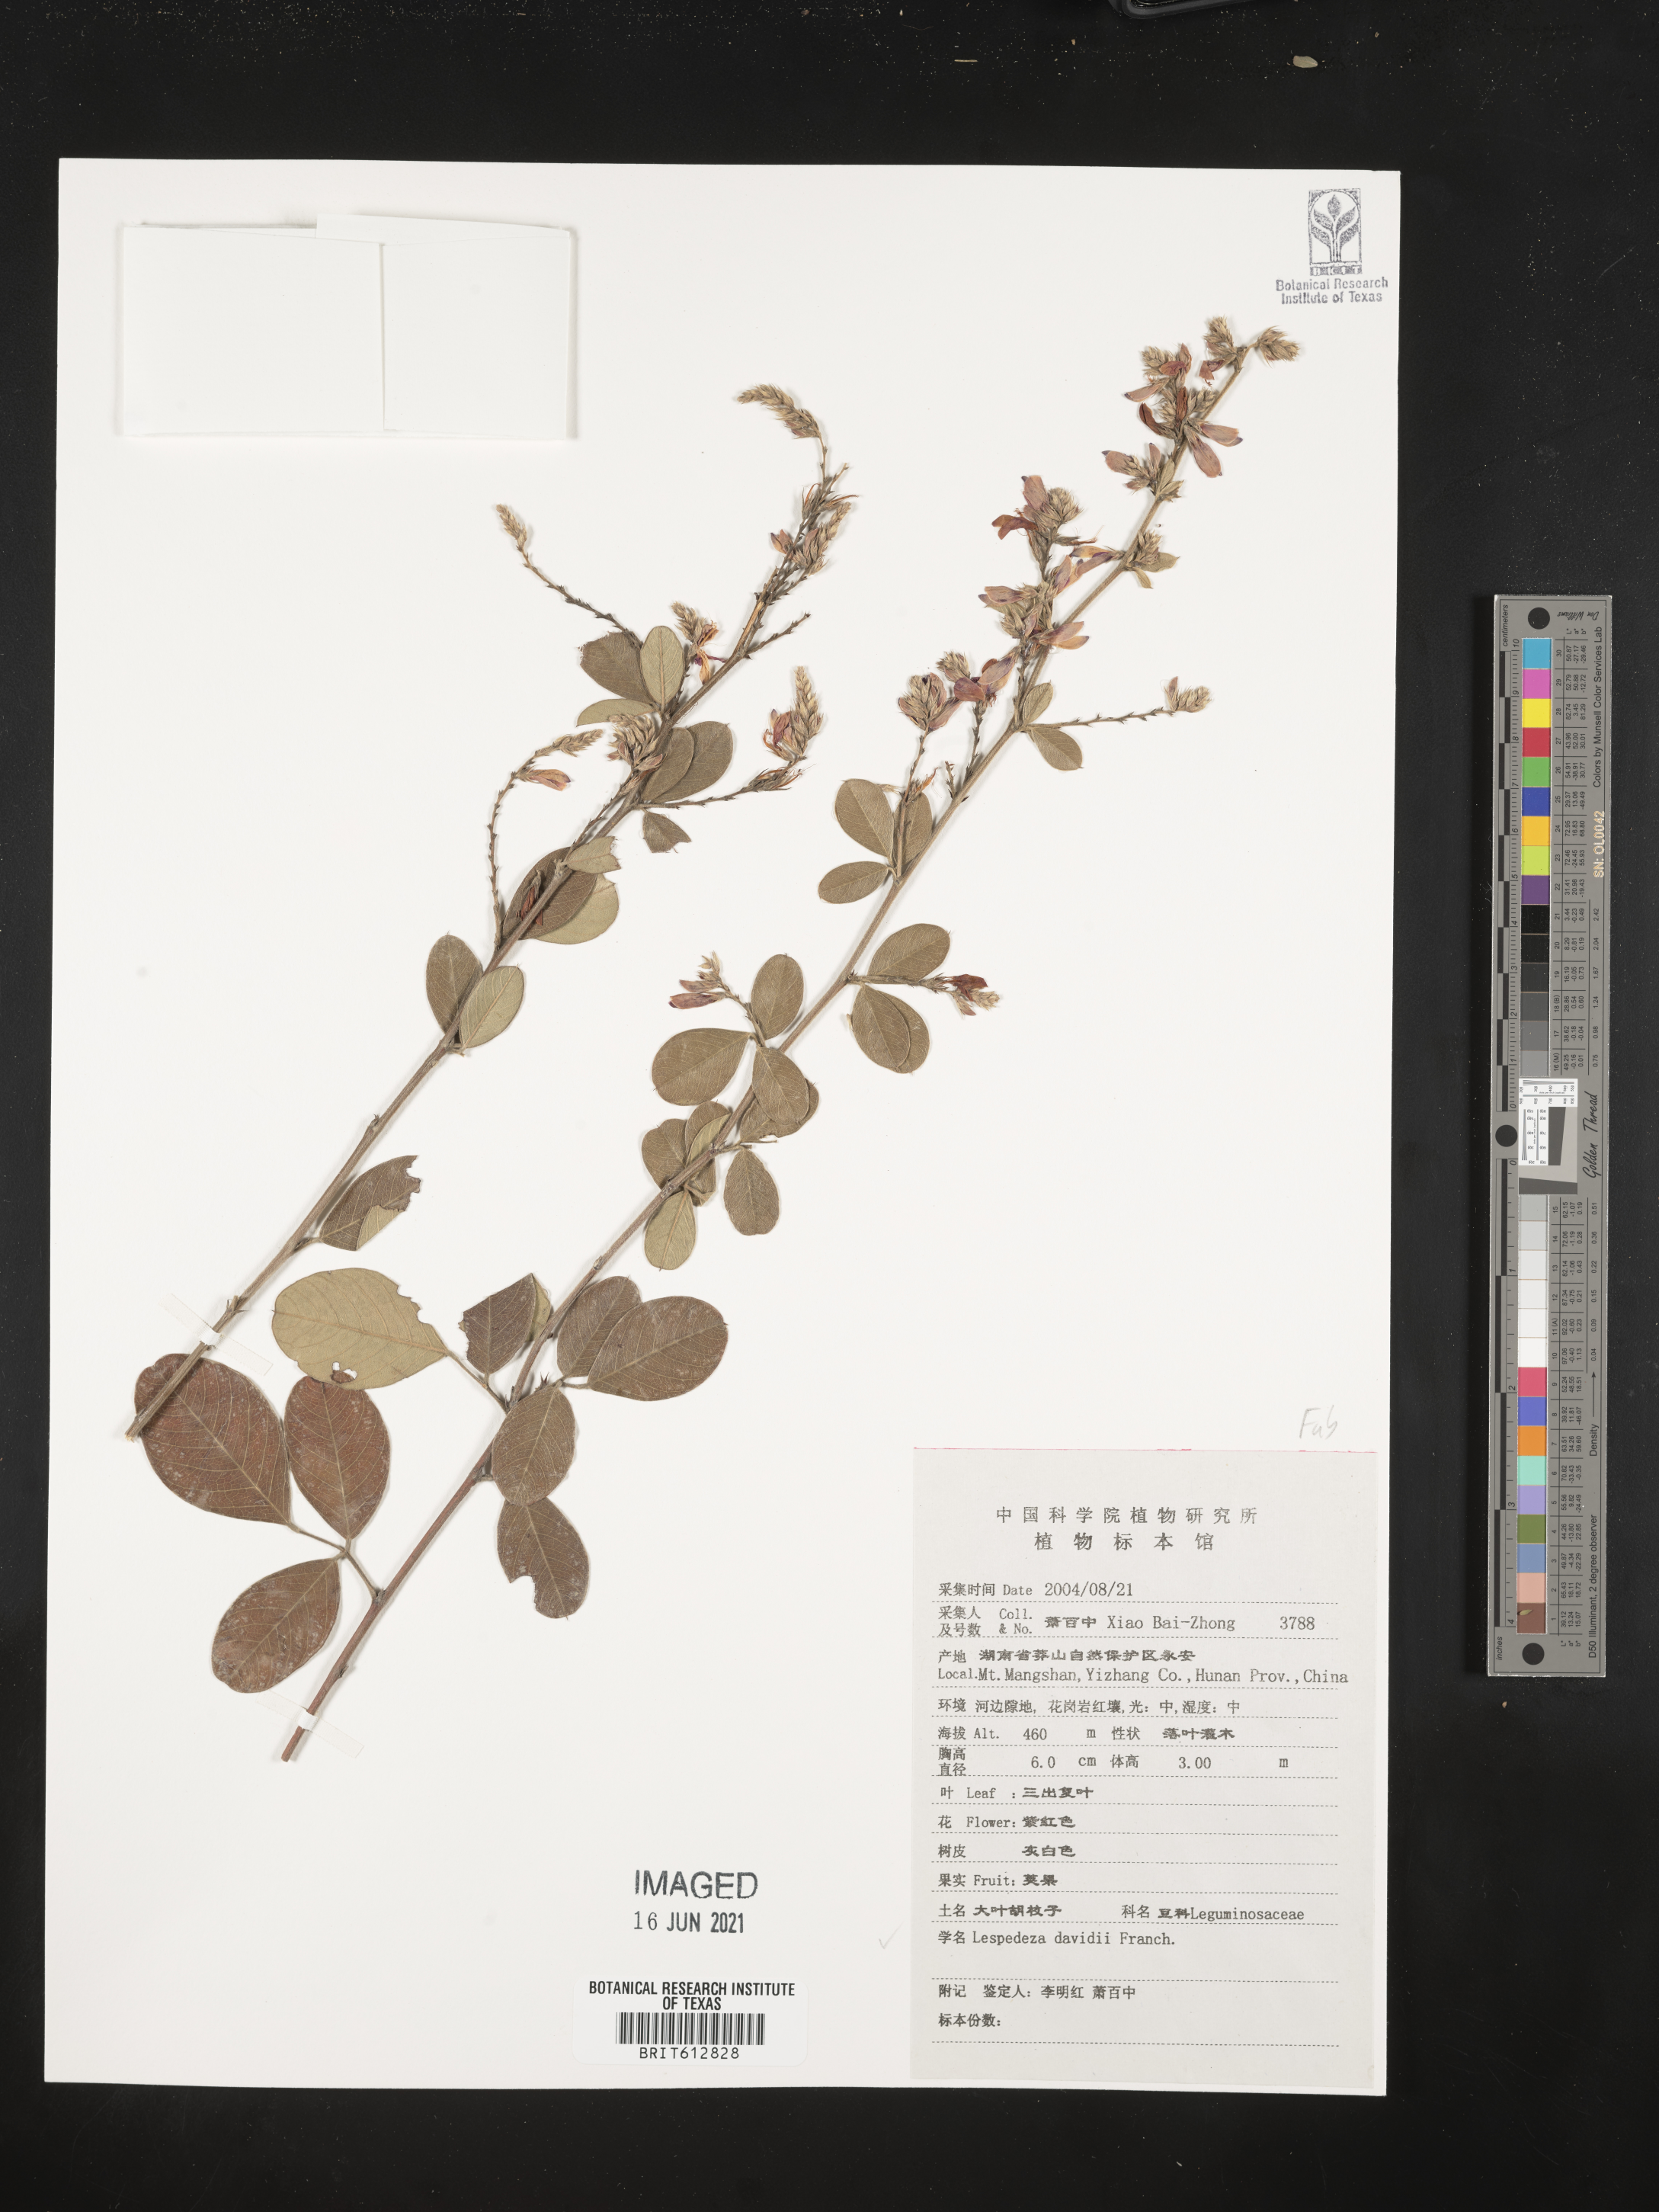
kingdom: Plantae
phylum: Tracheophyta
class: Magnoliopsida
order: Fabales
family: Fabaceae
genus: Lespedeza
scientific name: Lespedeza davidii
